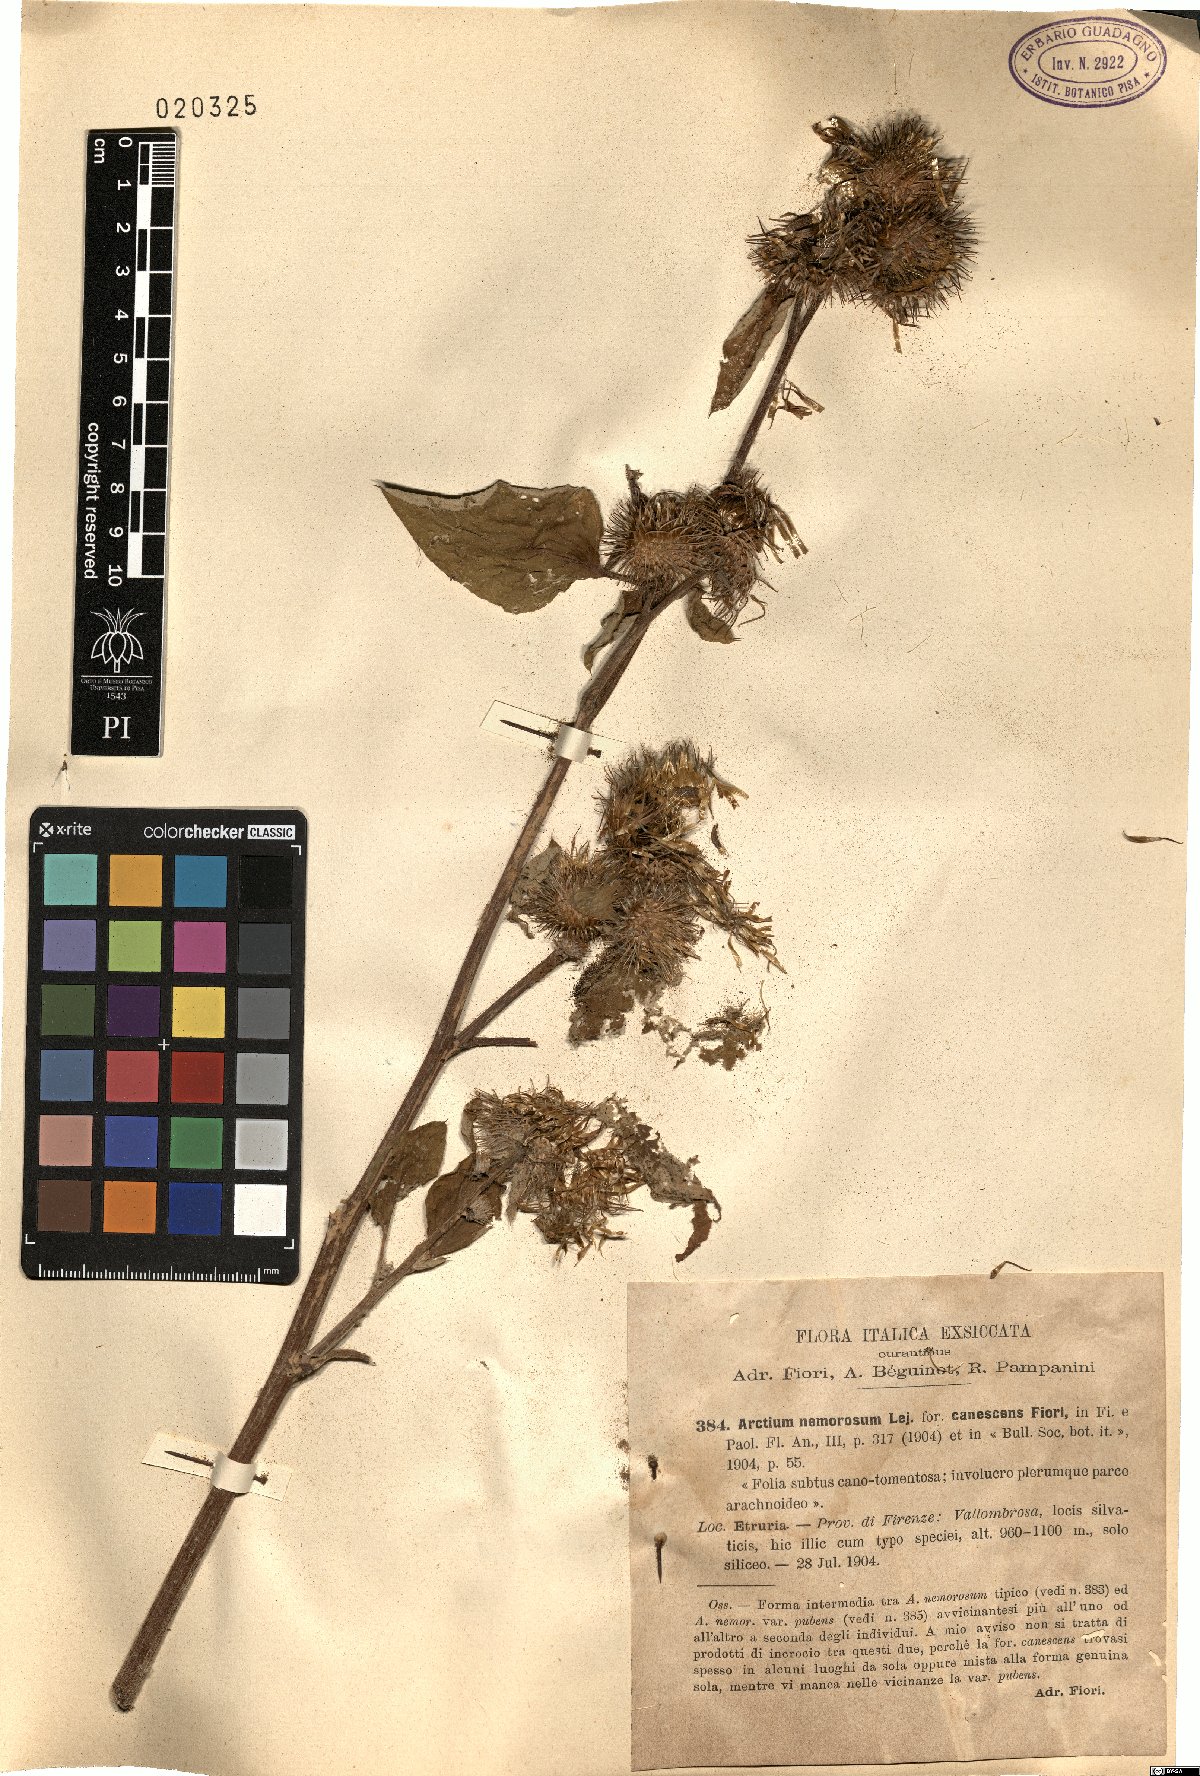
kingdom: Plantae
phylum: Tracheophyta
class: Magnoliopsida
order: Asterales
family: Asteraceae
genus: Arctium
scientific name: Arctium nemorosum
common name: Wood burdock
